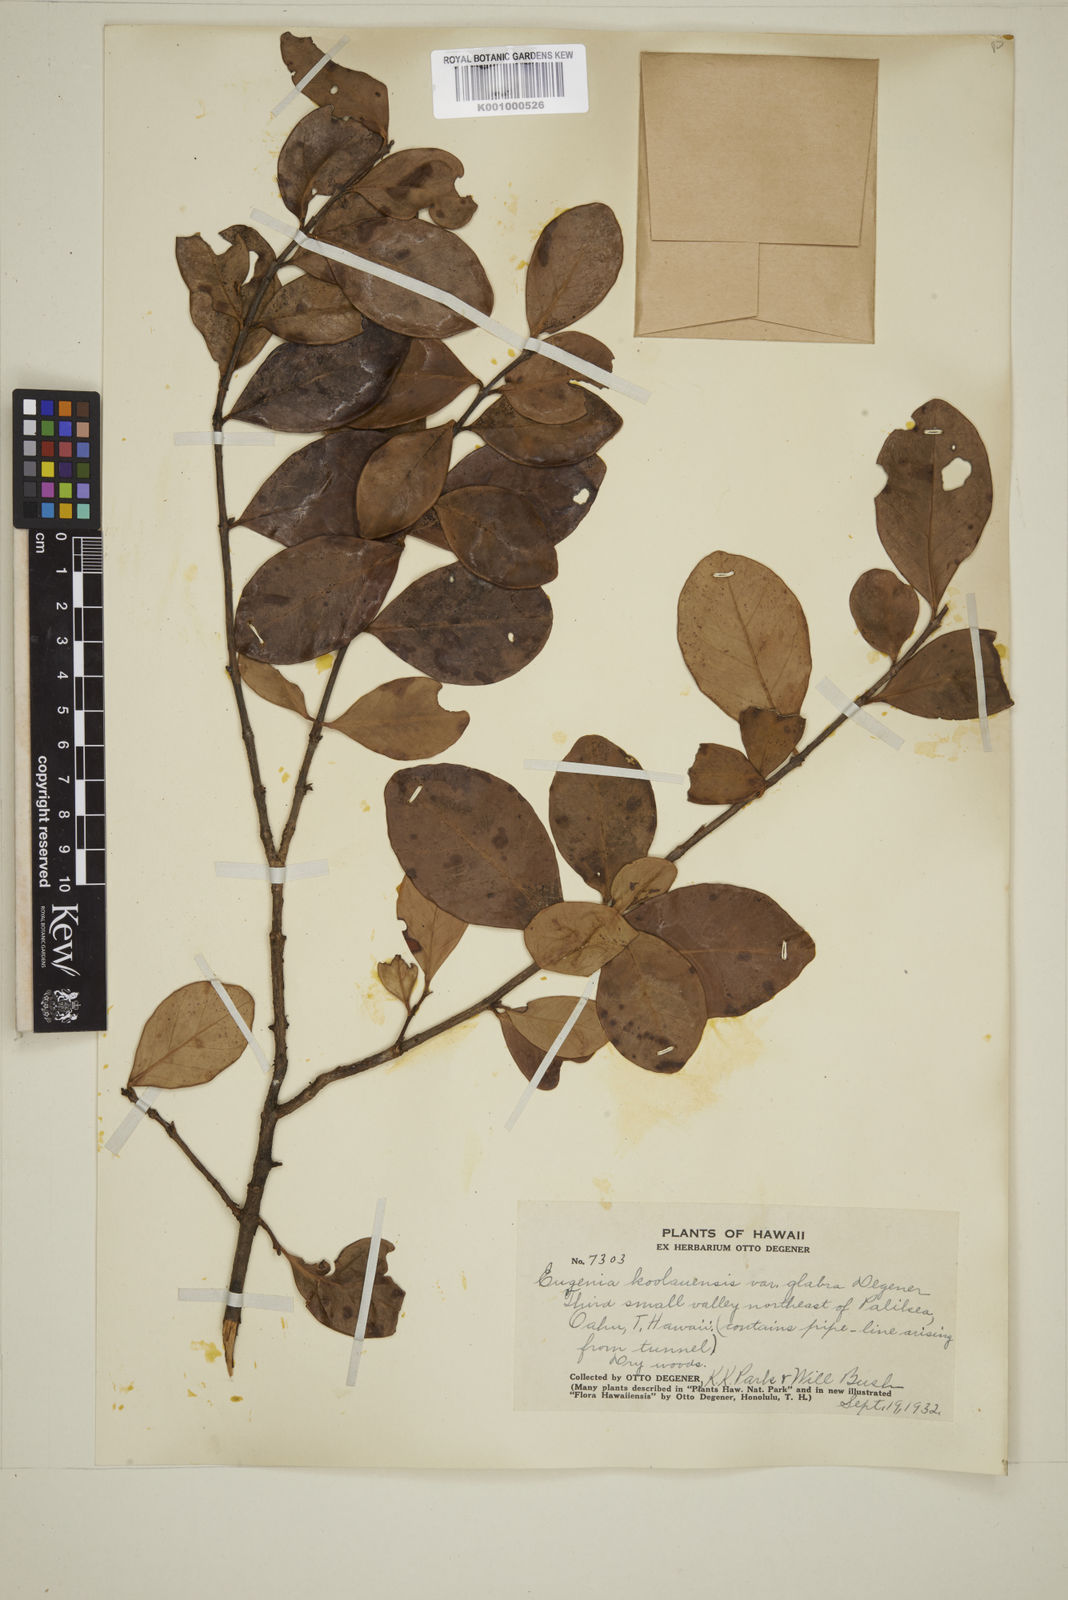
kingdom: Plantae
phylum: Tracheophyta
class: Magnoliopsida
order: Myrtales
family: Myrtaceae
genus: Eugenia
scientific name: Eugenia koolauensis
